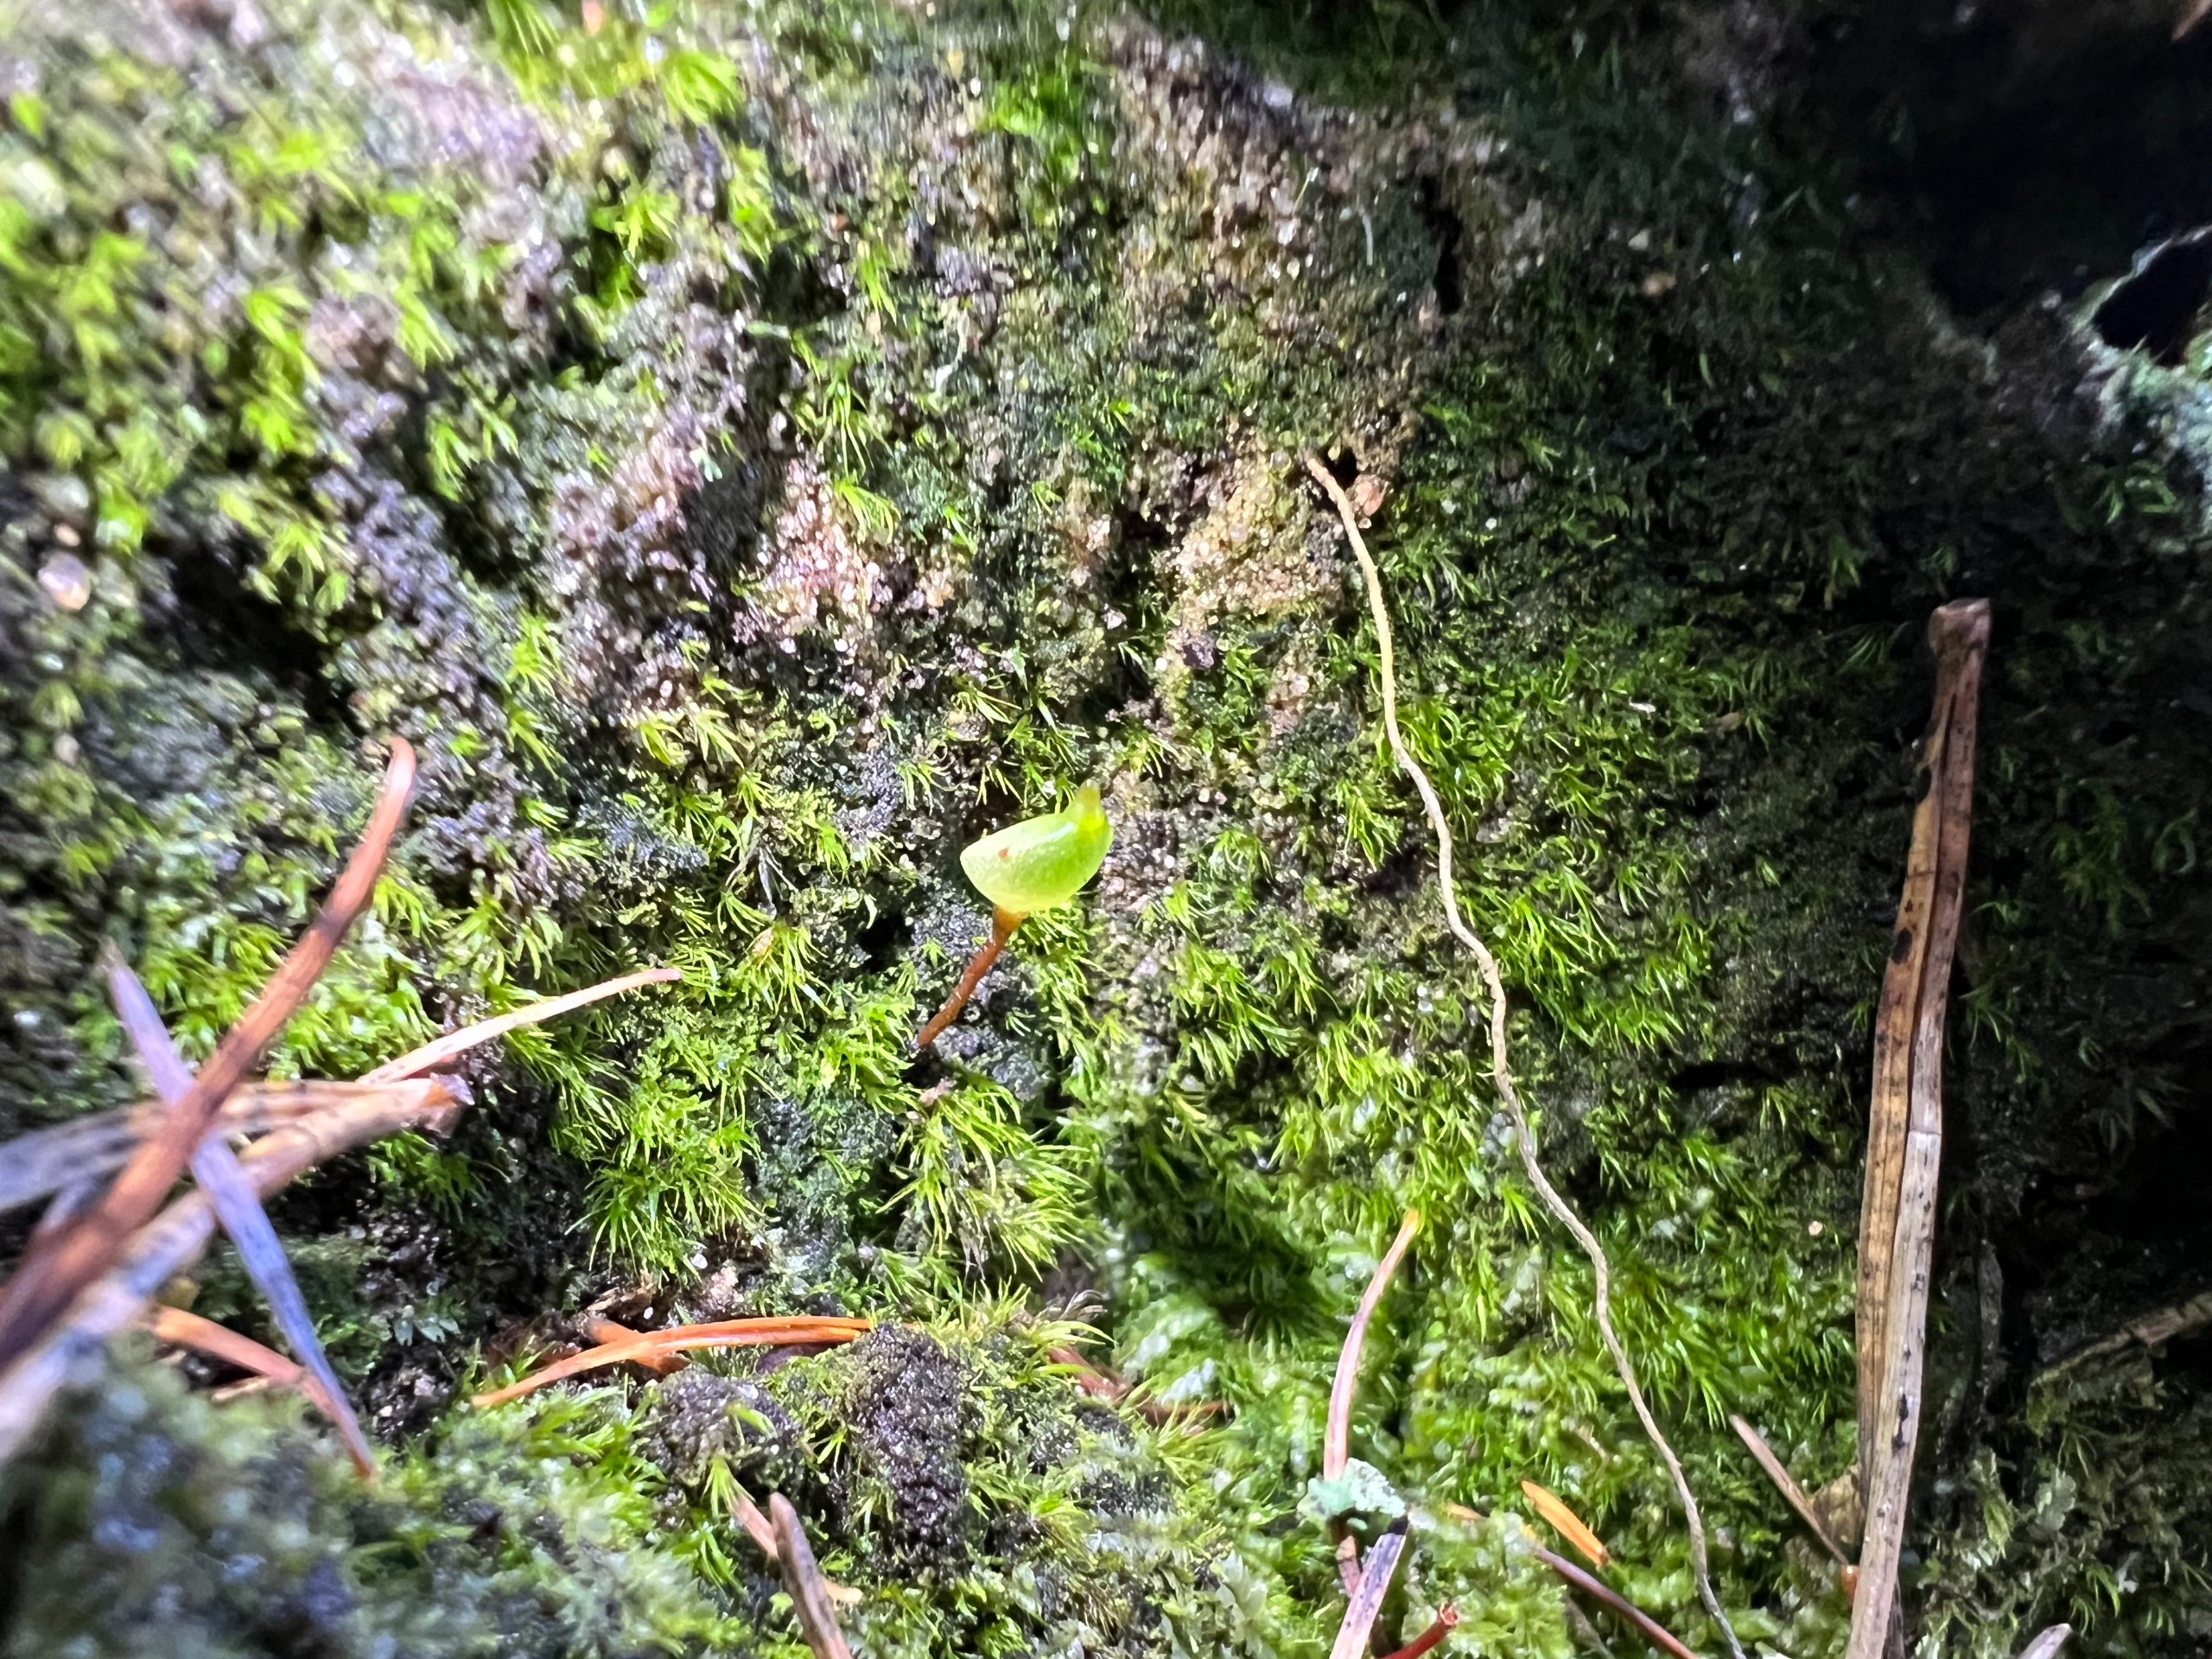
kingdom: Plantae
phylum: Bryophyta
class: Bryopsida
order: Buxbaumiales
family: Buxbaumiaceae
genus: Buxbaumia
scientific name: Buxbaumia aphylla
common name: Rundkapslet buxbaumia
